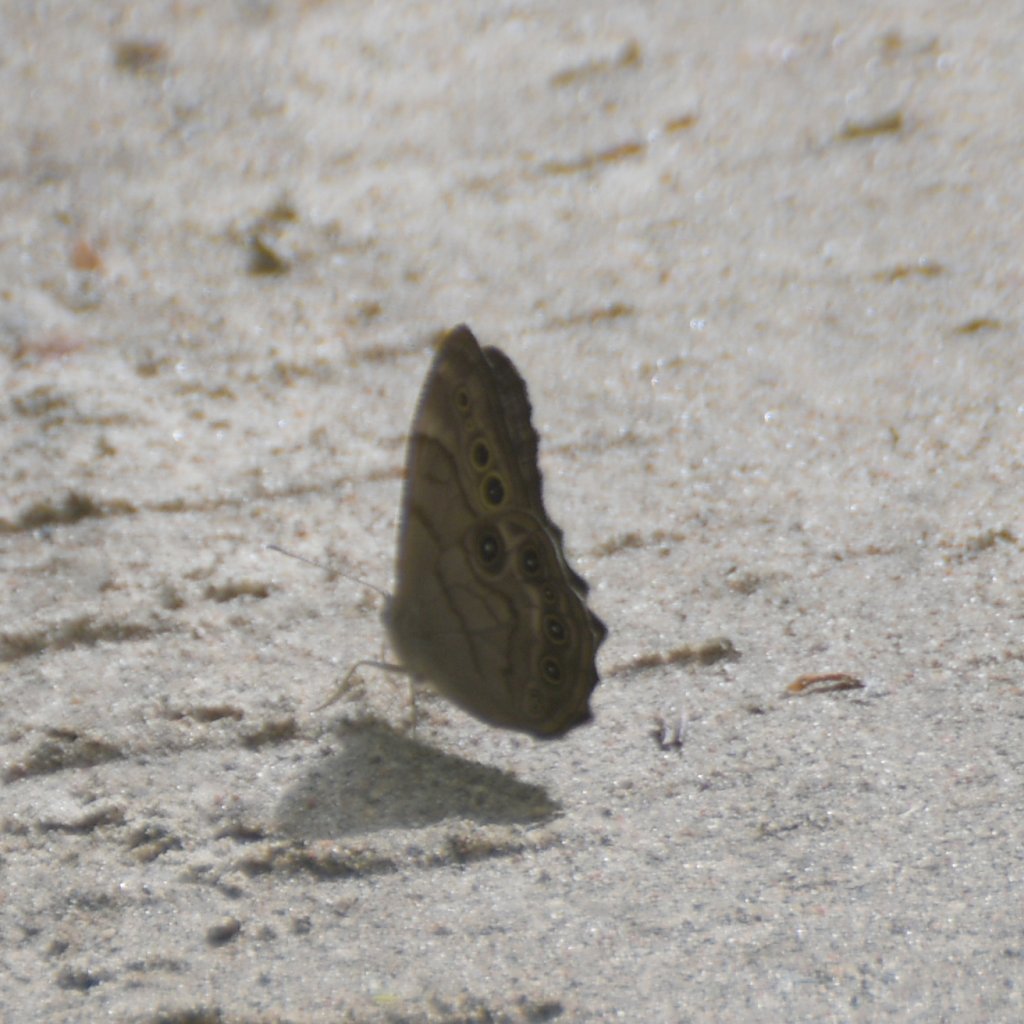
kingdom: Animalia
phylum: Arthropoda
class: Insecta
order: Lepidoptera
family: Nymphalidae
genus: Lethe
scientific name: Lethe anthedon
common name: Northern Pearly-Eye
